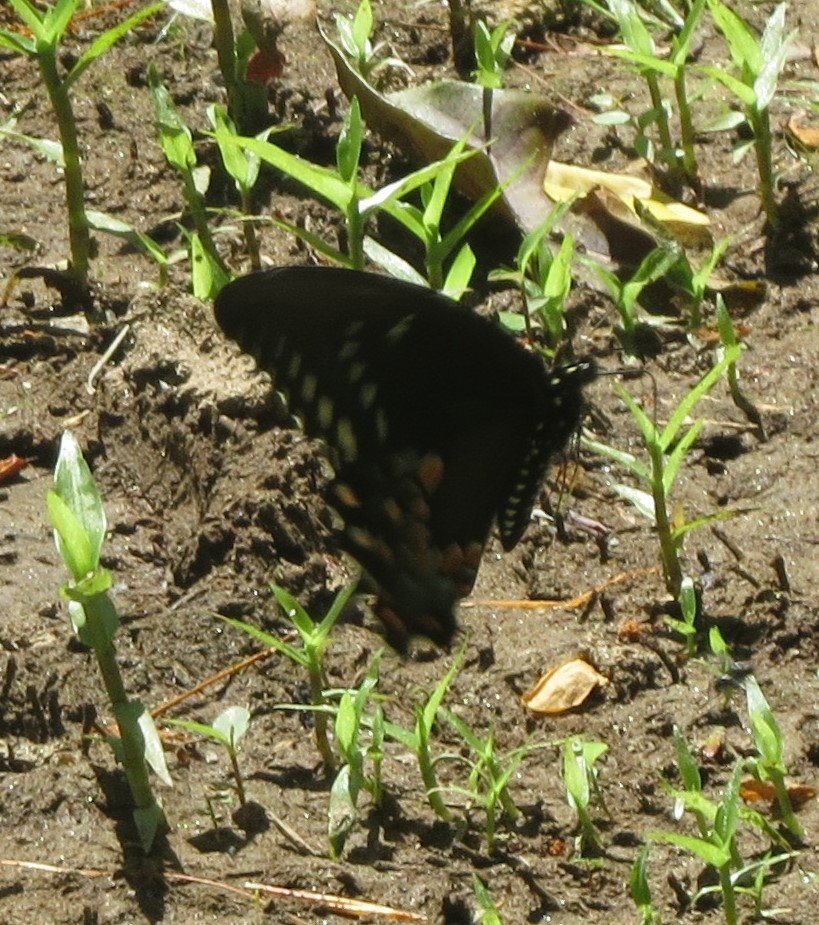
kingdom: Animalia
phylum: Arthropoda
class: Insecta
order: Lepidoptera
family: Papilionidae
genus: Pterourus
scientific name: Pterourus troilus
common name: Spicebush Swallowtail
